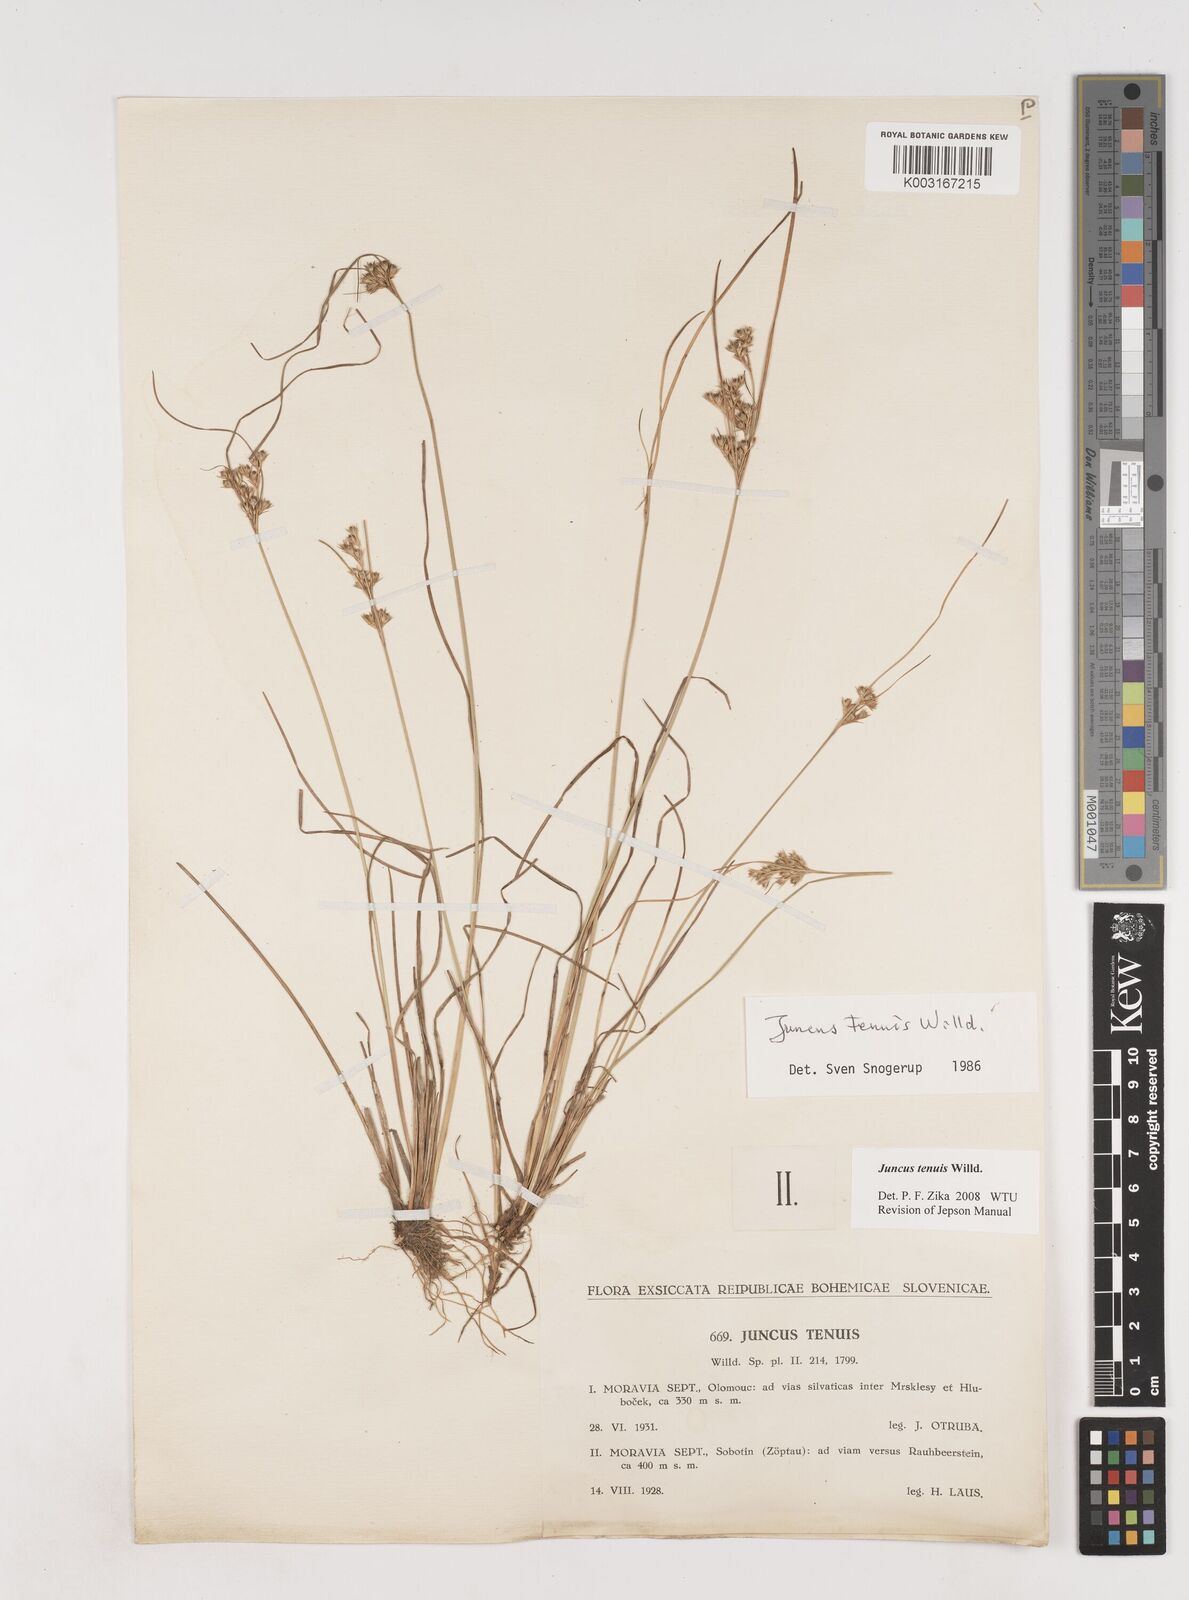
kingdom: Plantae
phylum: Tracheophyta
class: Liliopsida
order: Poales
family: Juncaceae
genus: Juncus
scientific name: Juncus tenuis
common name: Slender rush
